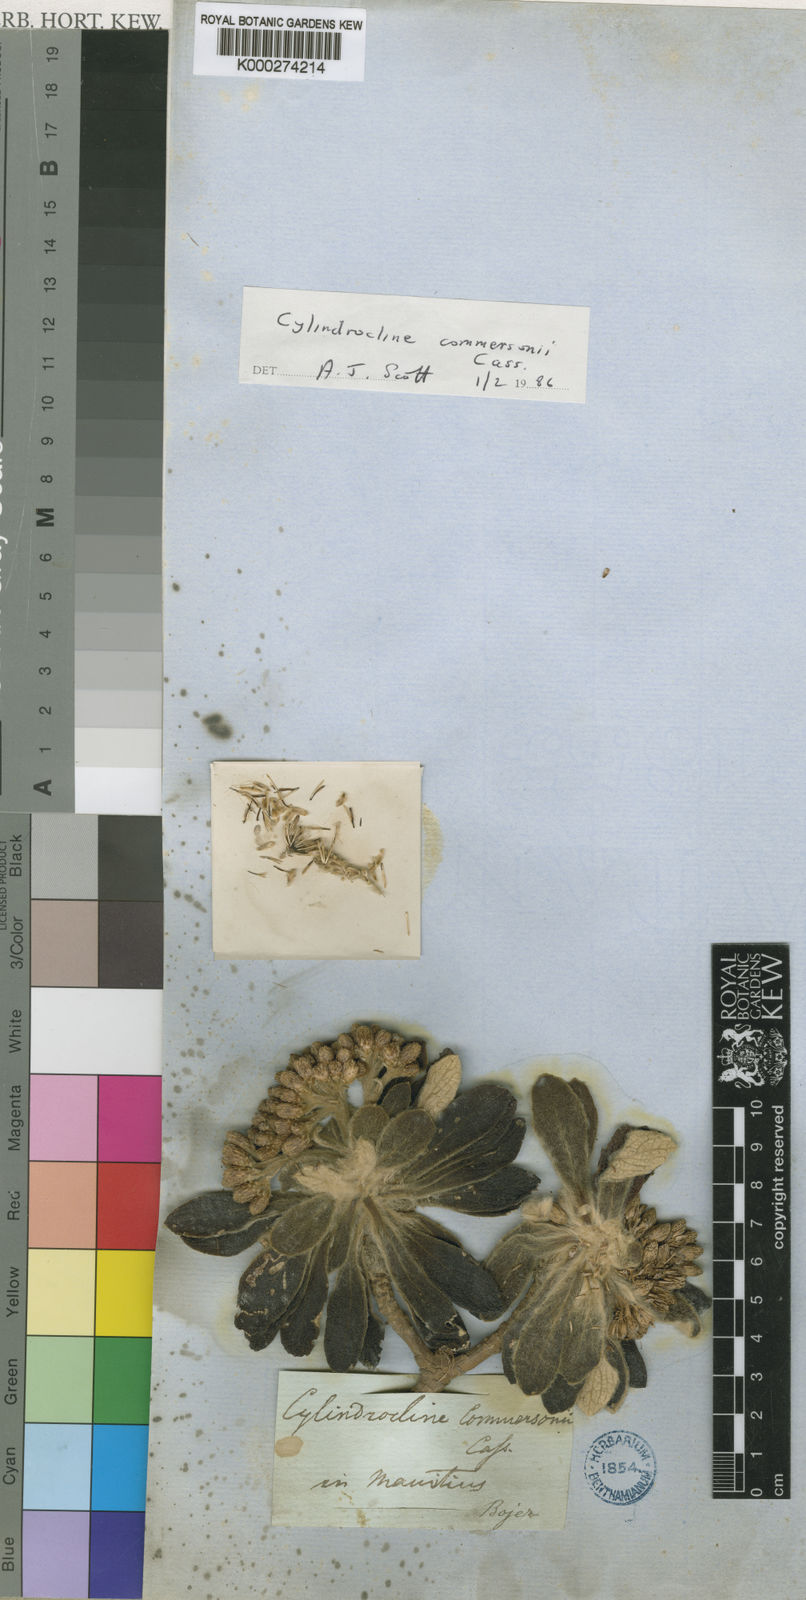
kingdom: Plantae
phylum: Tracheophyta
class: Magnoliopsida
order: Asterales
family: Asteraceae
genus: Cylindrocline
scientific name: Cylindrocline commersonii
